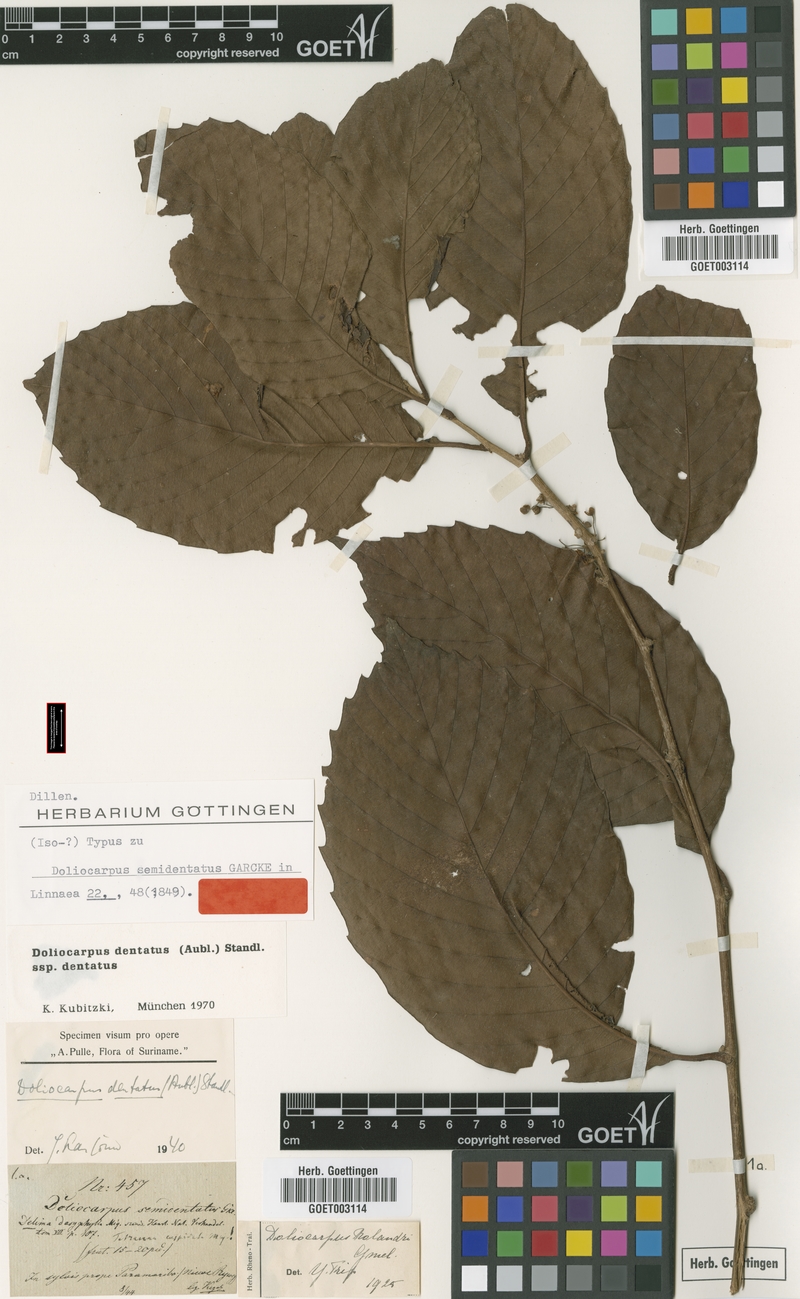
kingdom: Plantae
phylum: Tracheophyta
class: Magnoliopsida
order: Dilleniales
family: Dilleniaceae
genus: Doliocarpus
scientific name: Doliocarpus dentatus
